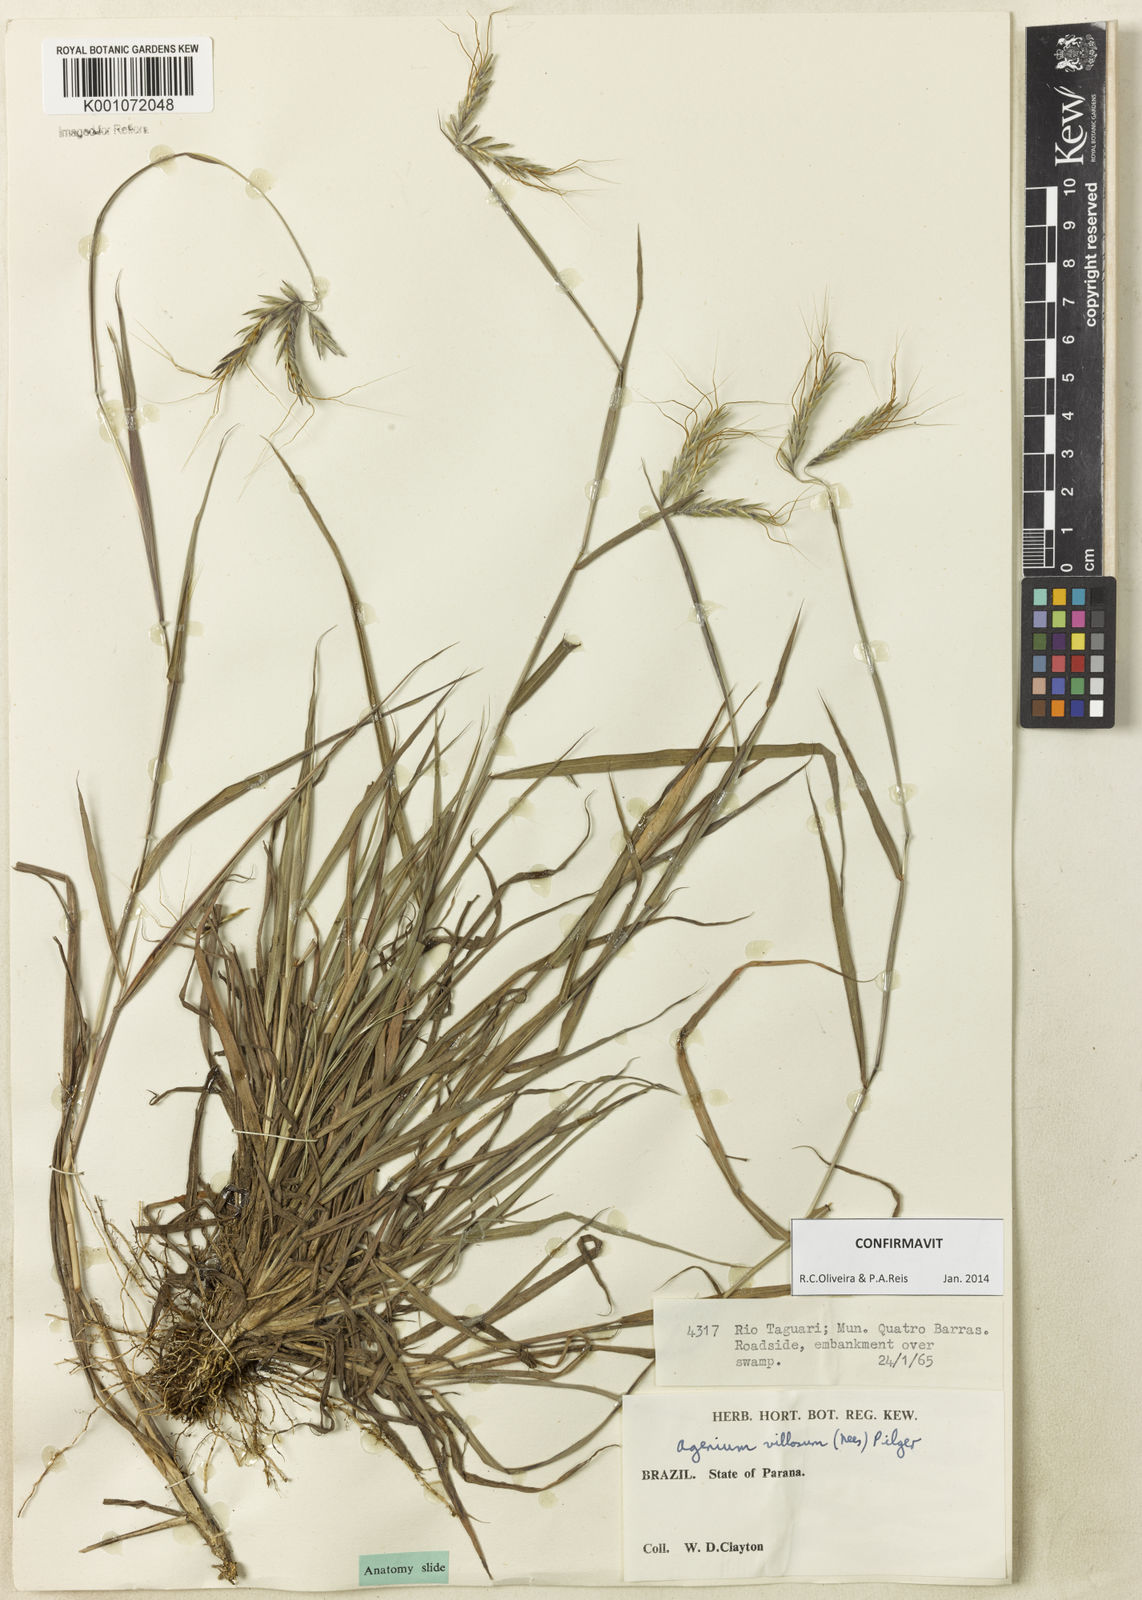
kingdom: Plantae
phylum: Tracheophyta
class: Liliopsida
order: Poales
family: Poaceae
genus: Agenium
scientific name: Agenium villosum
